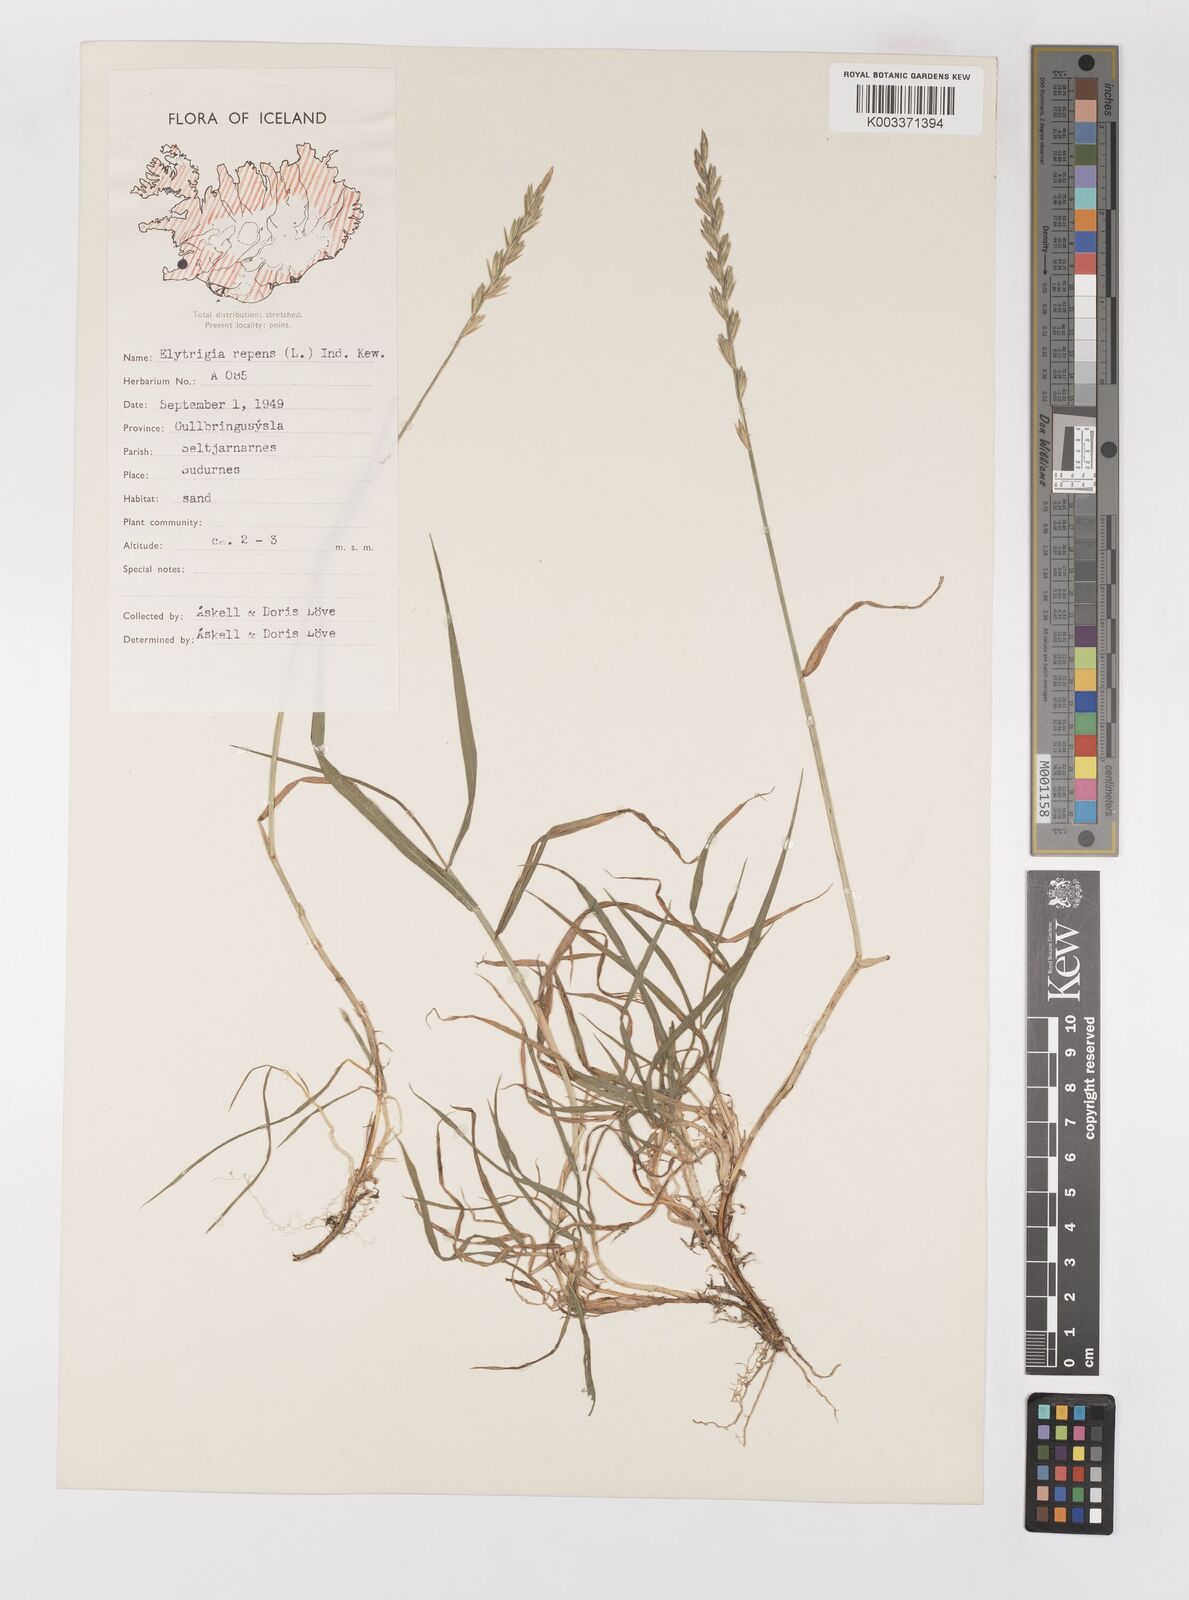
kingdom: Plantae
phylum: Tracheophyta
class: Liliopsida
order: Poales
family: Poaceae
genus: Elymus
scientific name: Elymus repens
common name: Quackgrass
